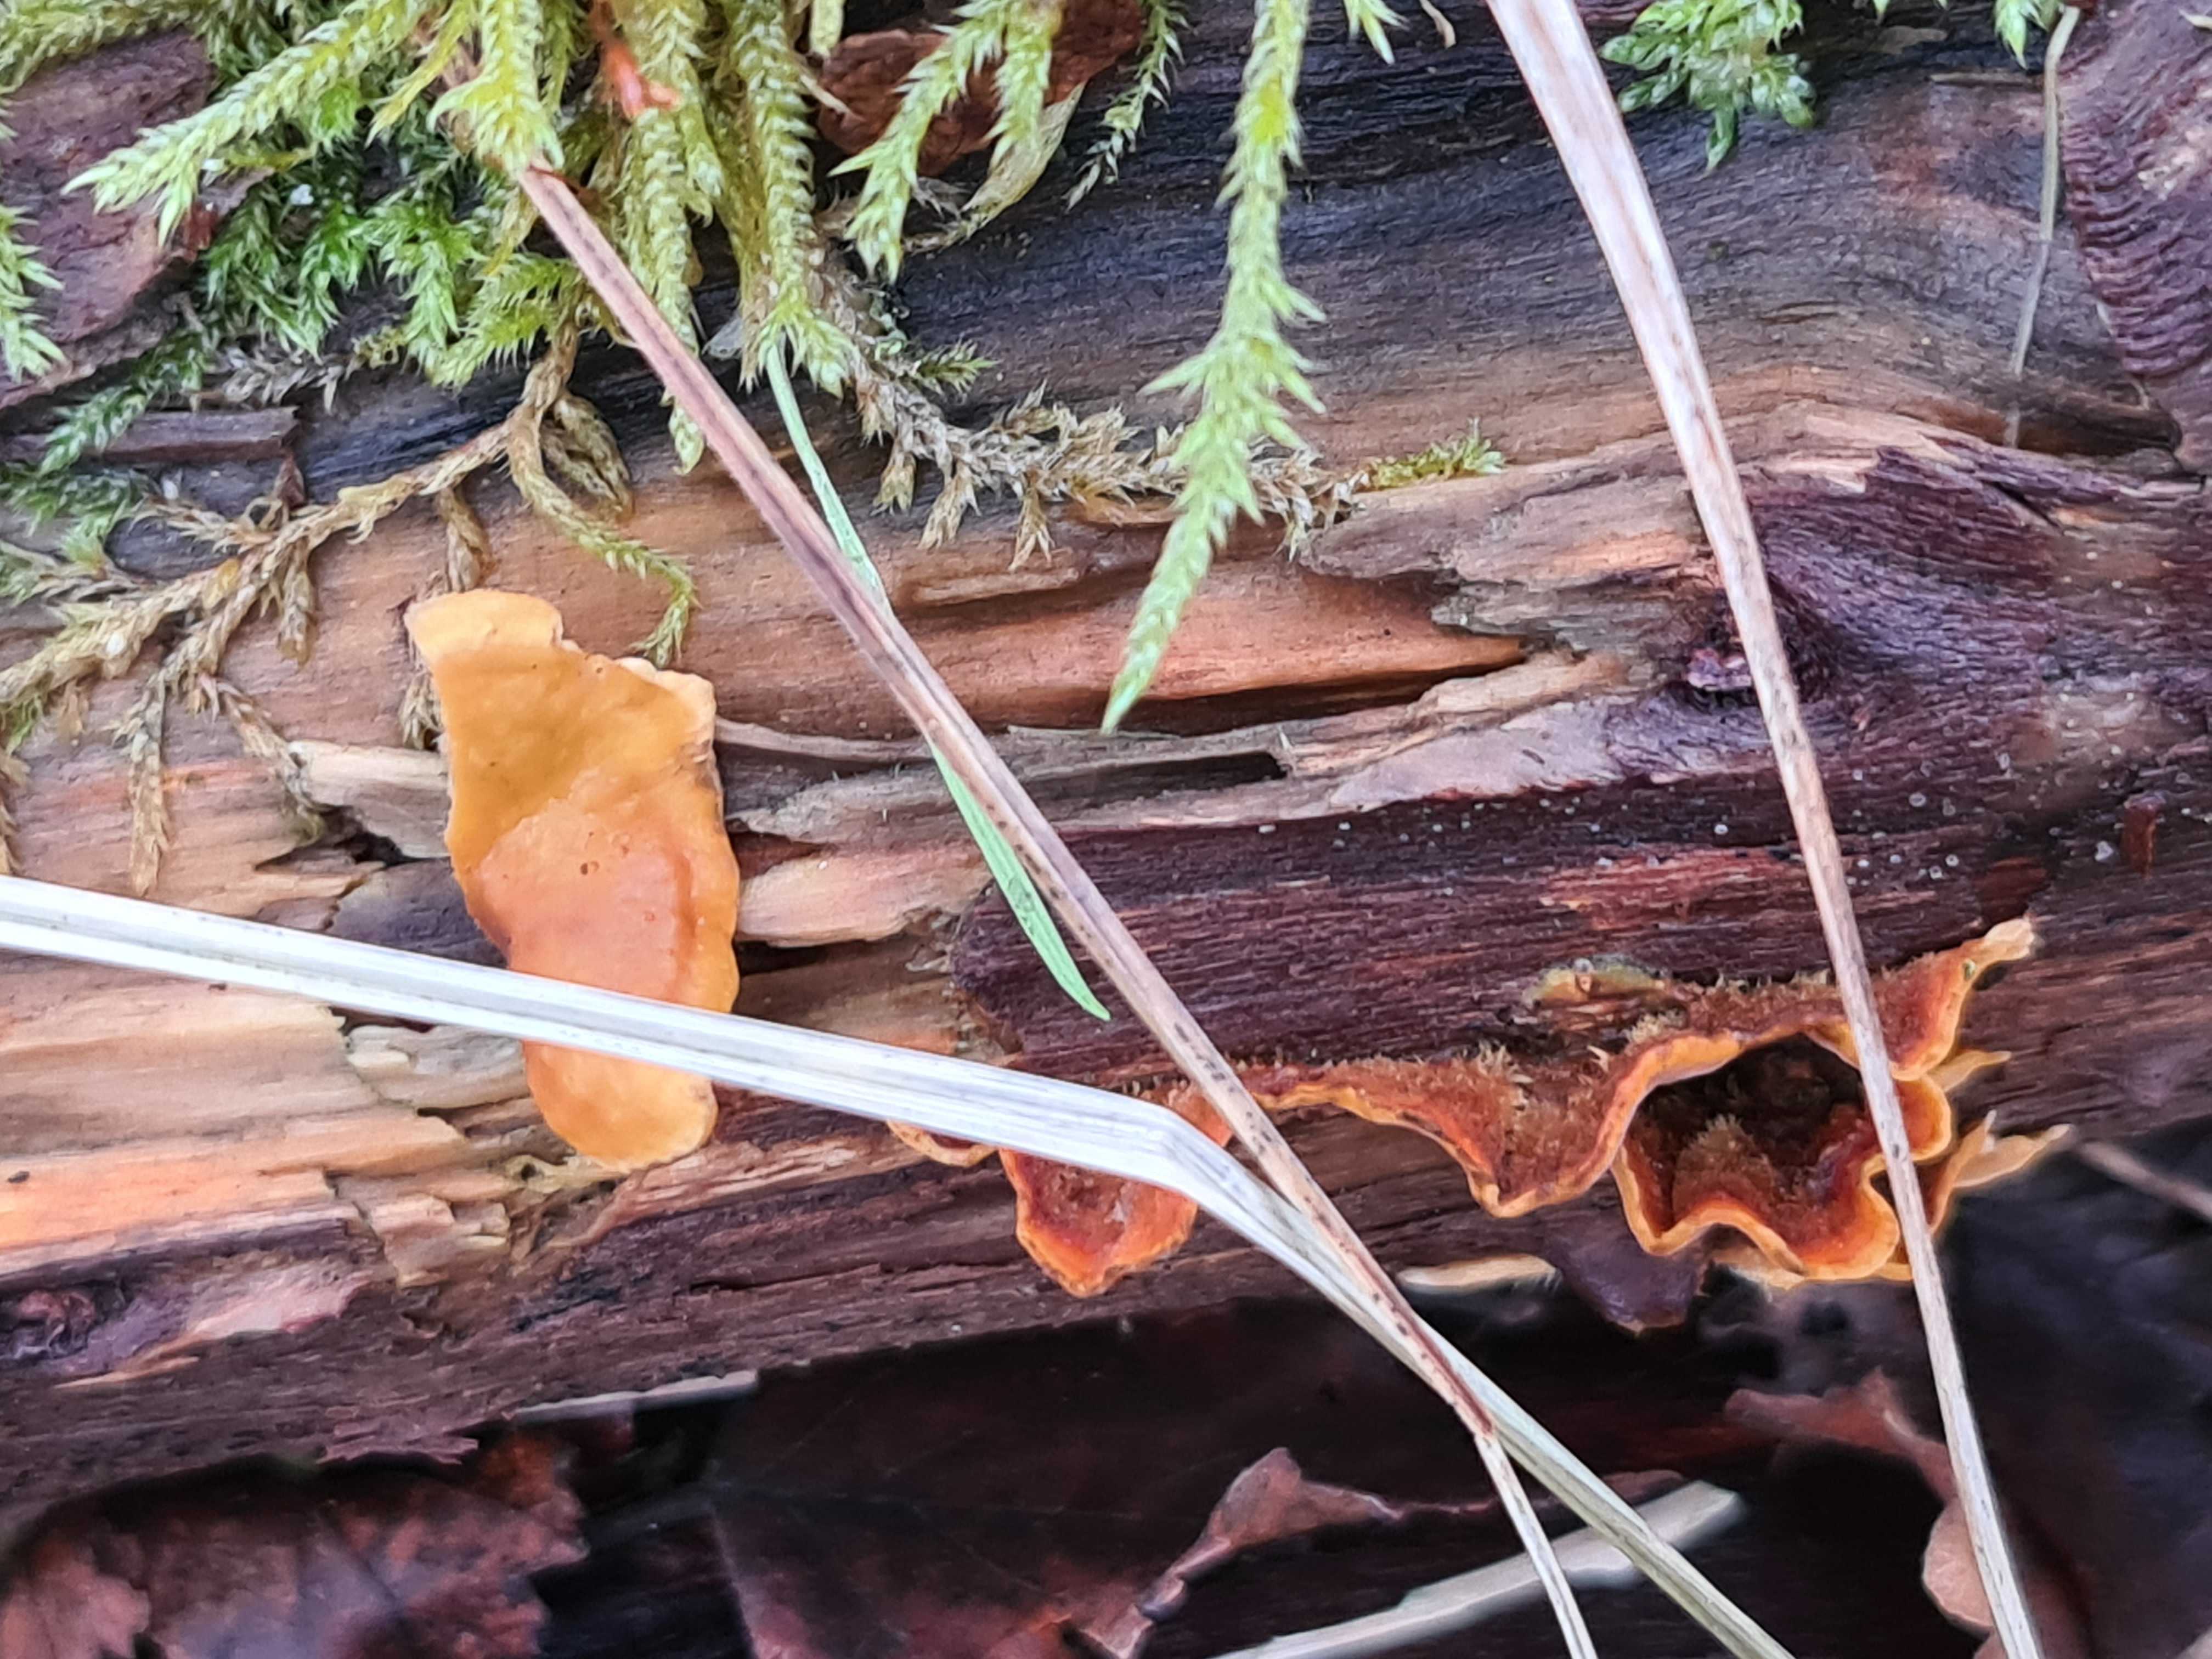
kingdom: Fungi
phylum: Basidiomycota
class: Agaricomycetes
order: Russulales
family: Stereaceae
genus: Stereum
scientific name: Stereum hirsutum
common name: håret lædersvamp
